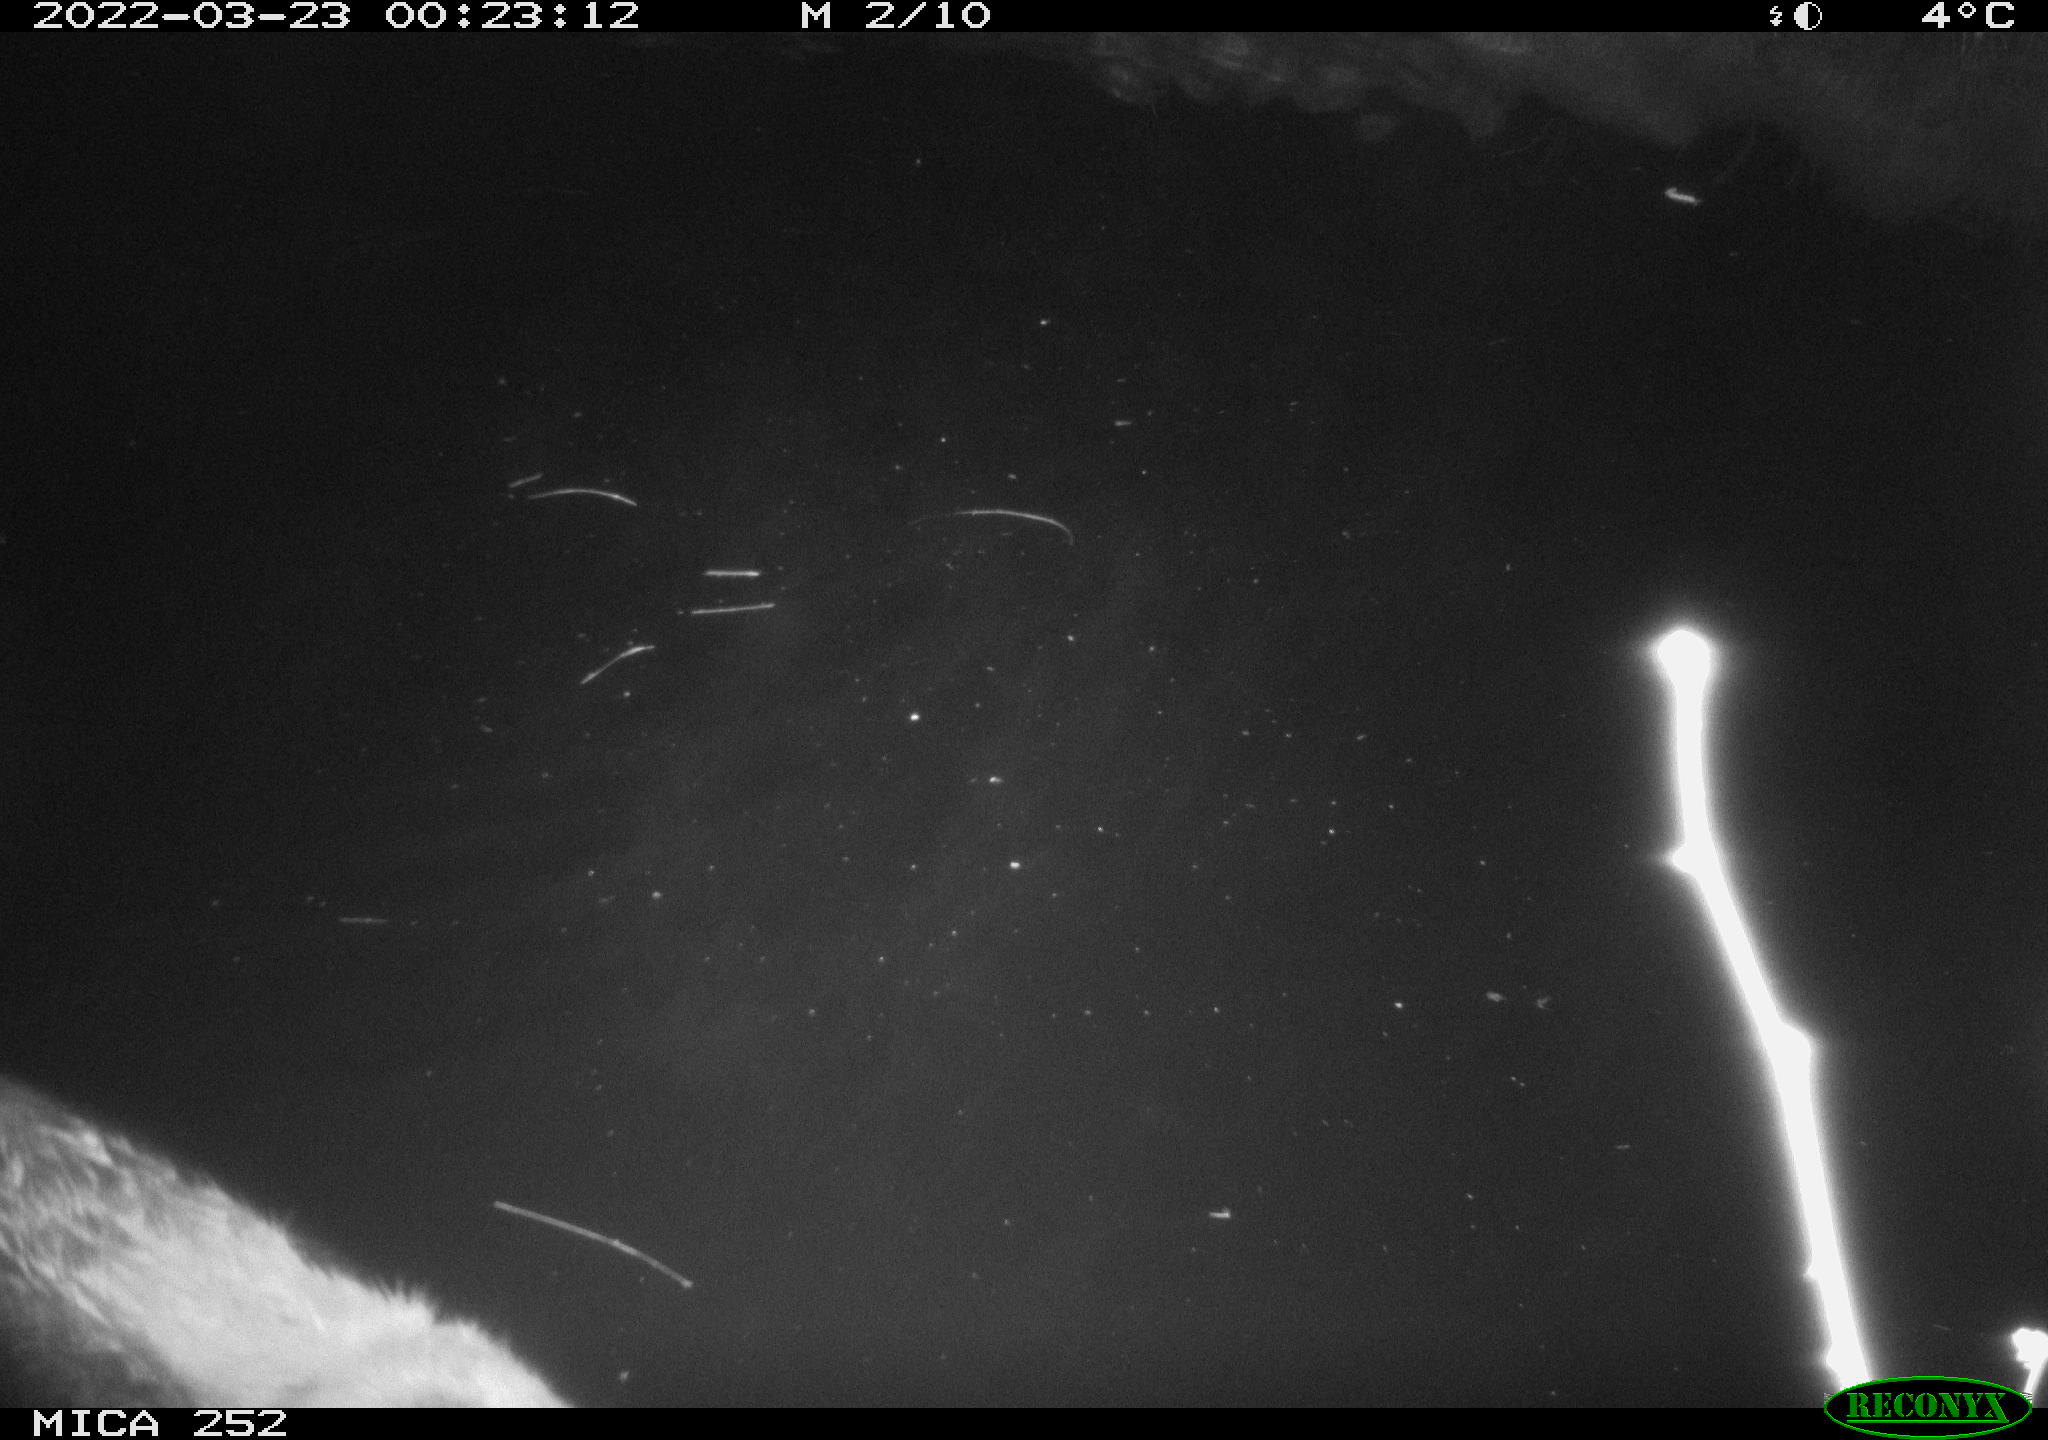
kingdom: Animalia
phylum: Chordata
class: Mammalia
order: Rodentia
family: Castoridae
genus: Castor
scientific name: Castor fiber
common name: Eurasian beaver
